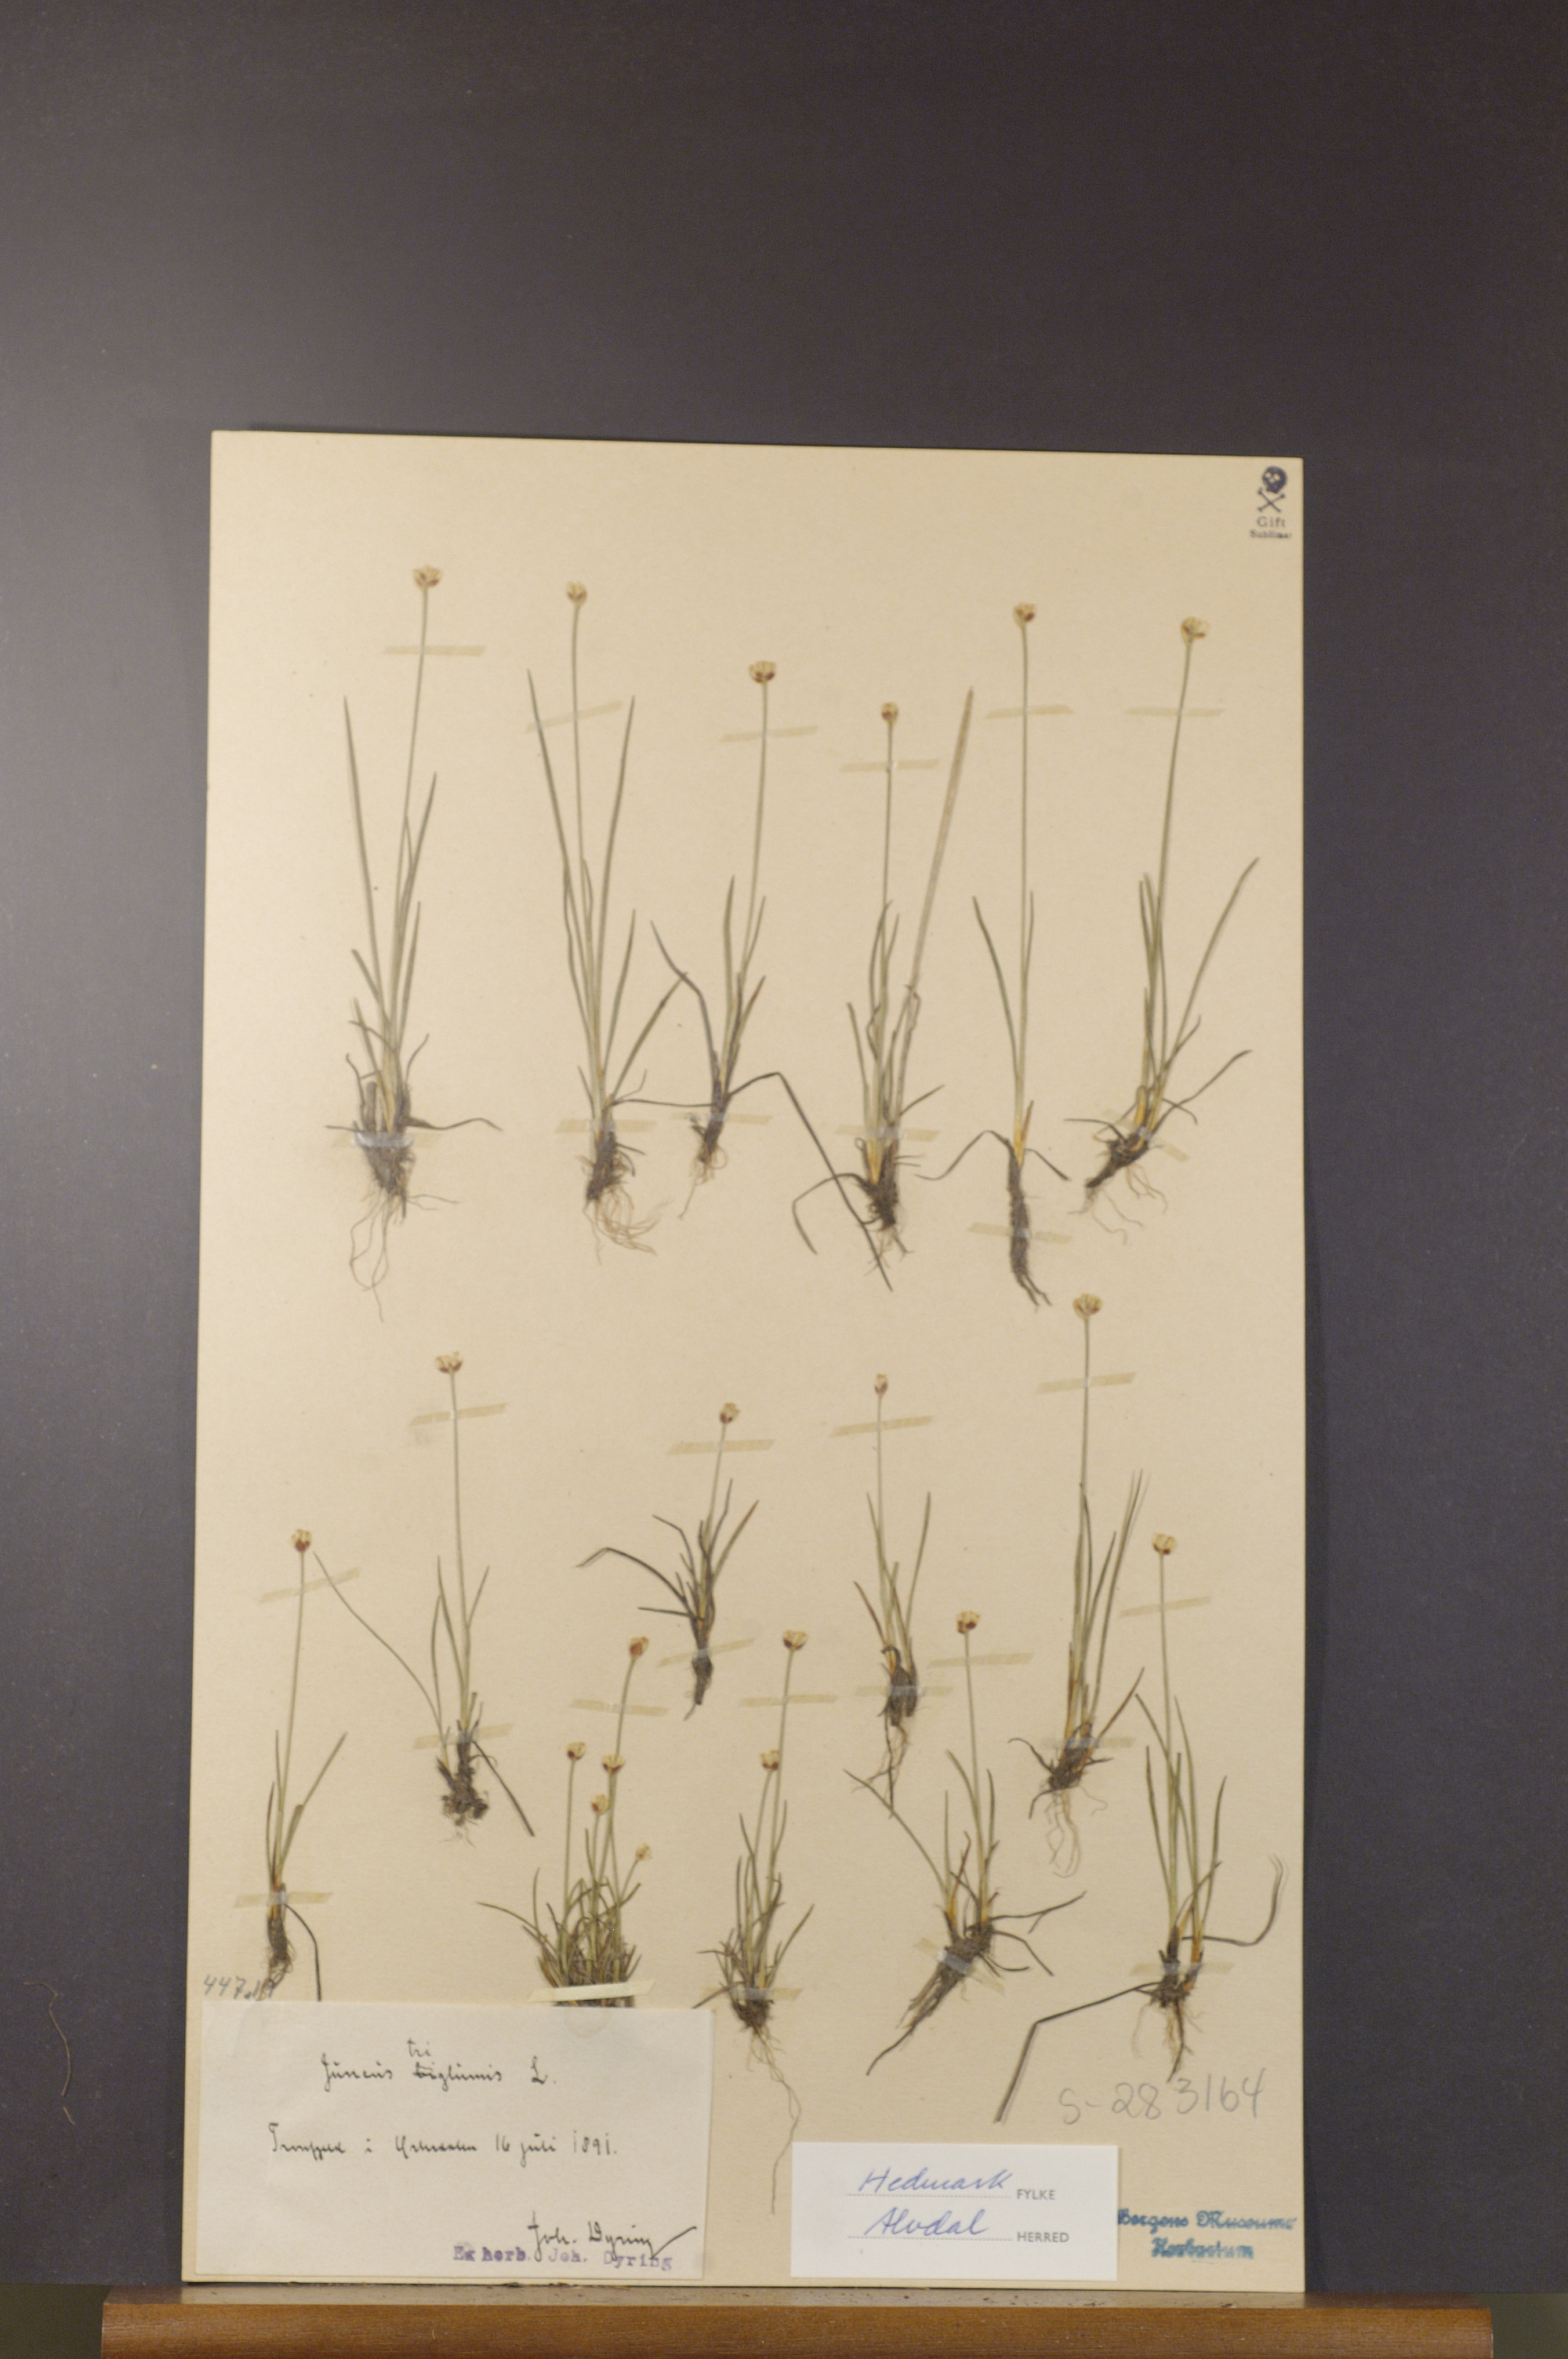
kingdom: Plantae
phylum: Tracheophyta
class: Liliopsida
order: Poales
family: Juncaceae
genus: Juncus
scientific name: Juncus triglumis
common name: Three-flowered rush
